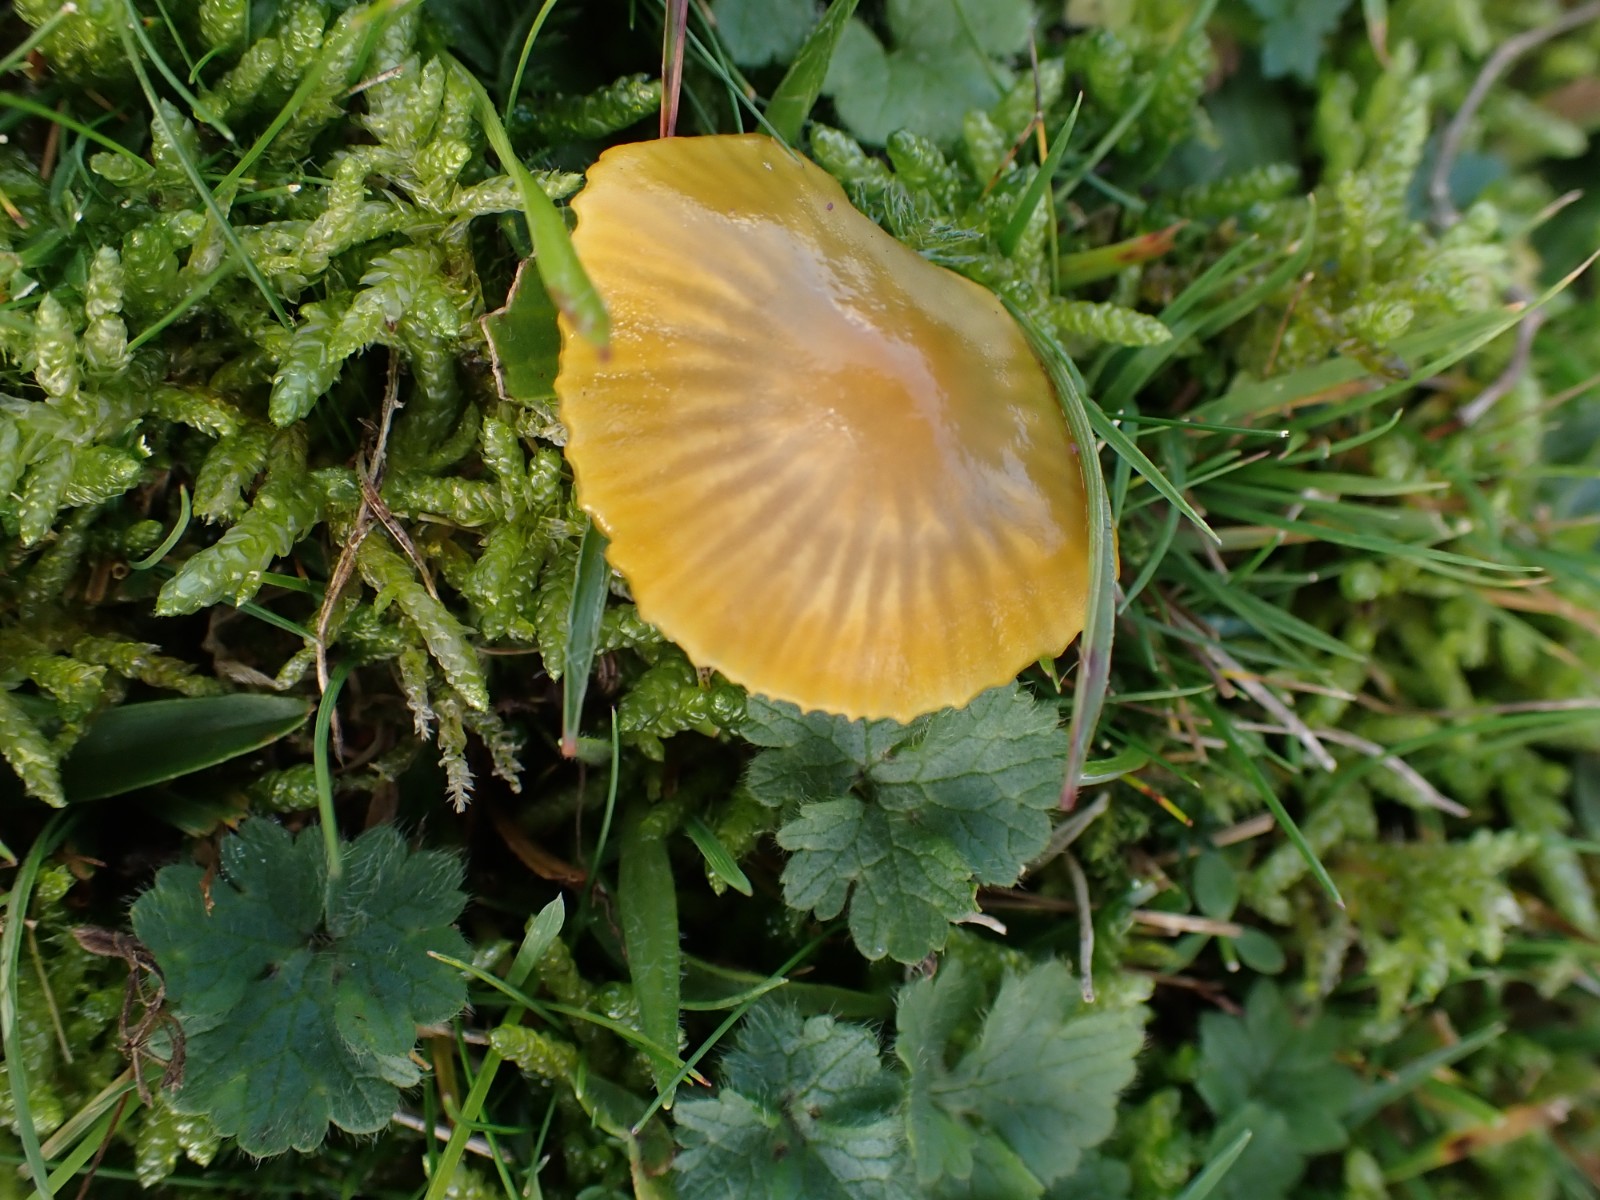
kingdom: Fungi
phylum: Basidiomycota
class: Agaricomycetes
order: Agaricales
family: Hygrophoraceae
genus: Gliophorus
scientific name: Gliophorus psittacinus
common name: papegøje-vokshat
